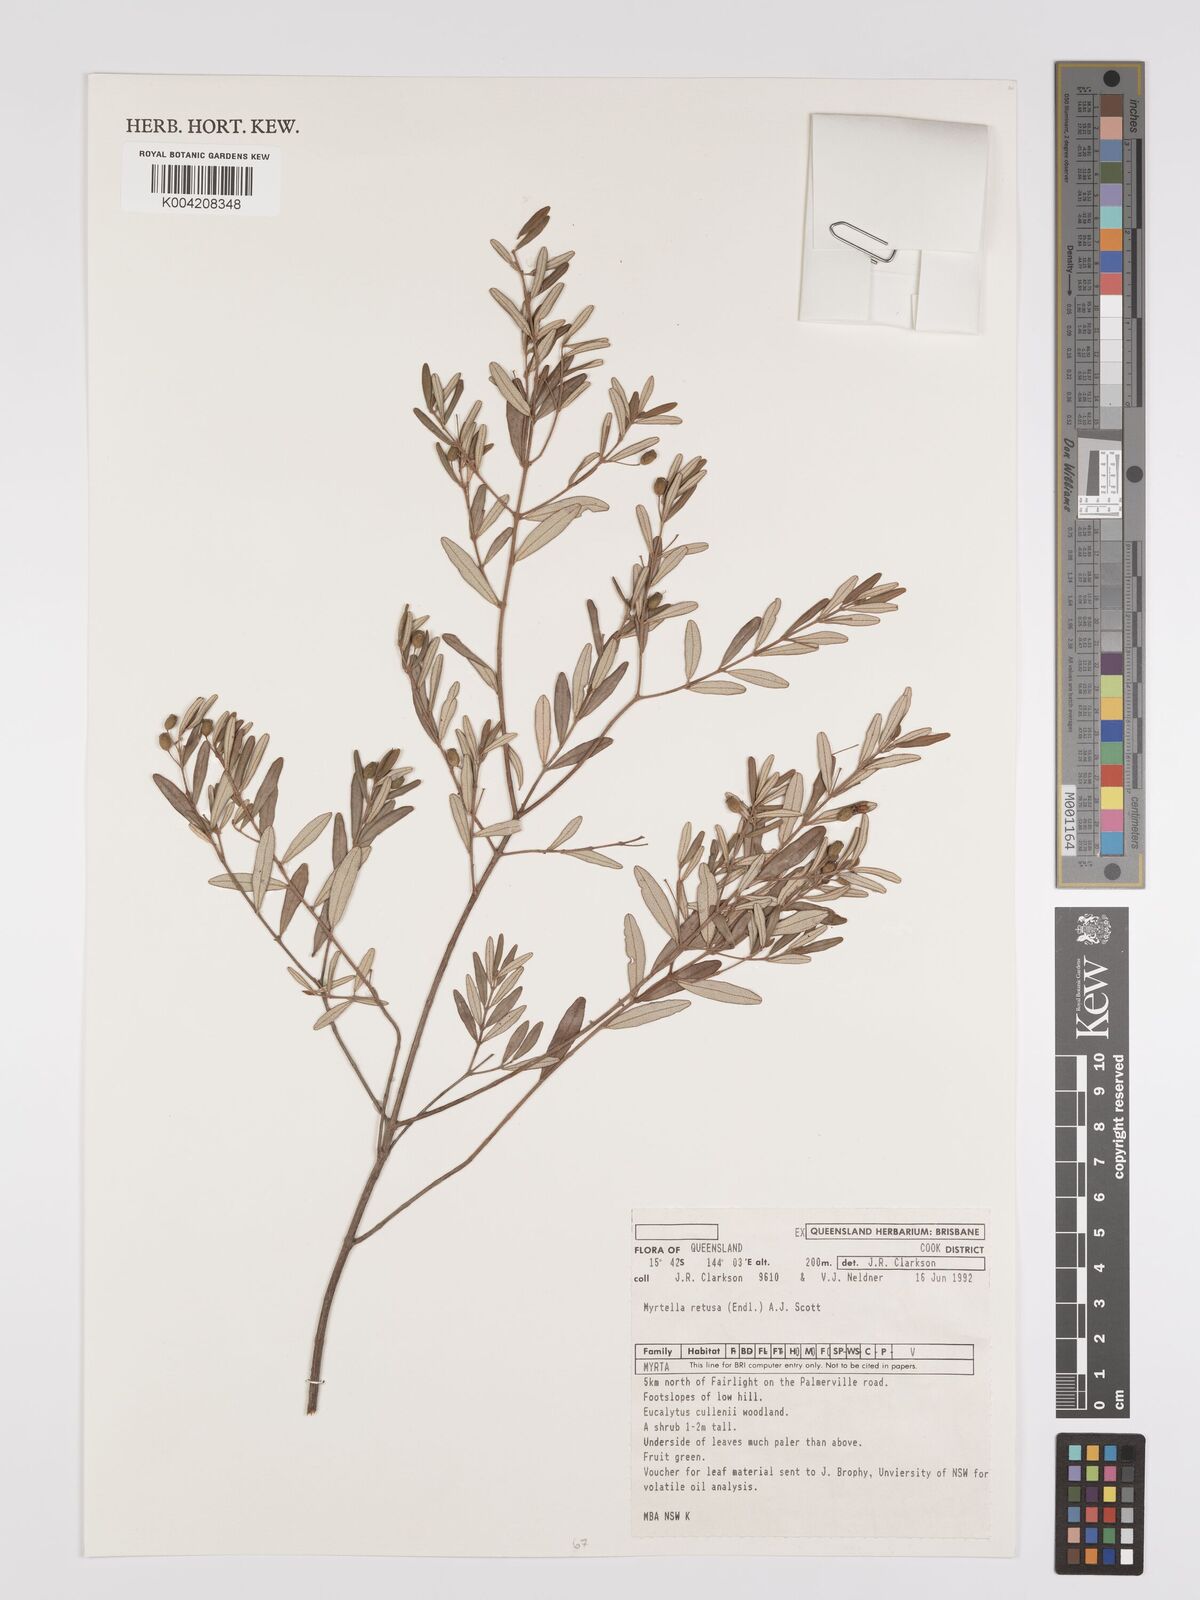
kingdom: Plantae
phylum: Tracheophyta
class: Magnoliopsida
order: Myrtales
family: Myrtaceae
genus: Lithomyrtus
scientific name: Lithomyrtus retusa
